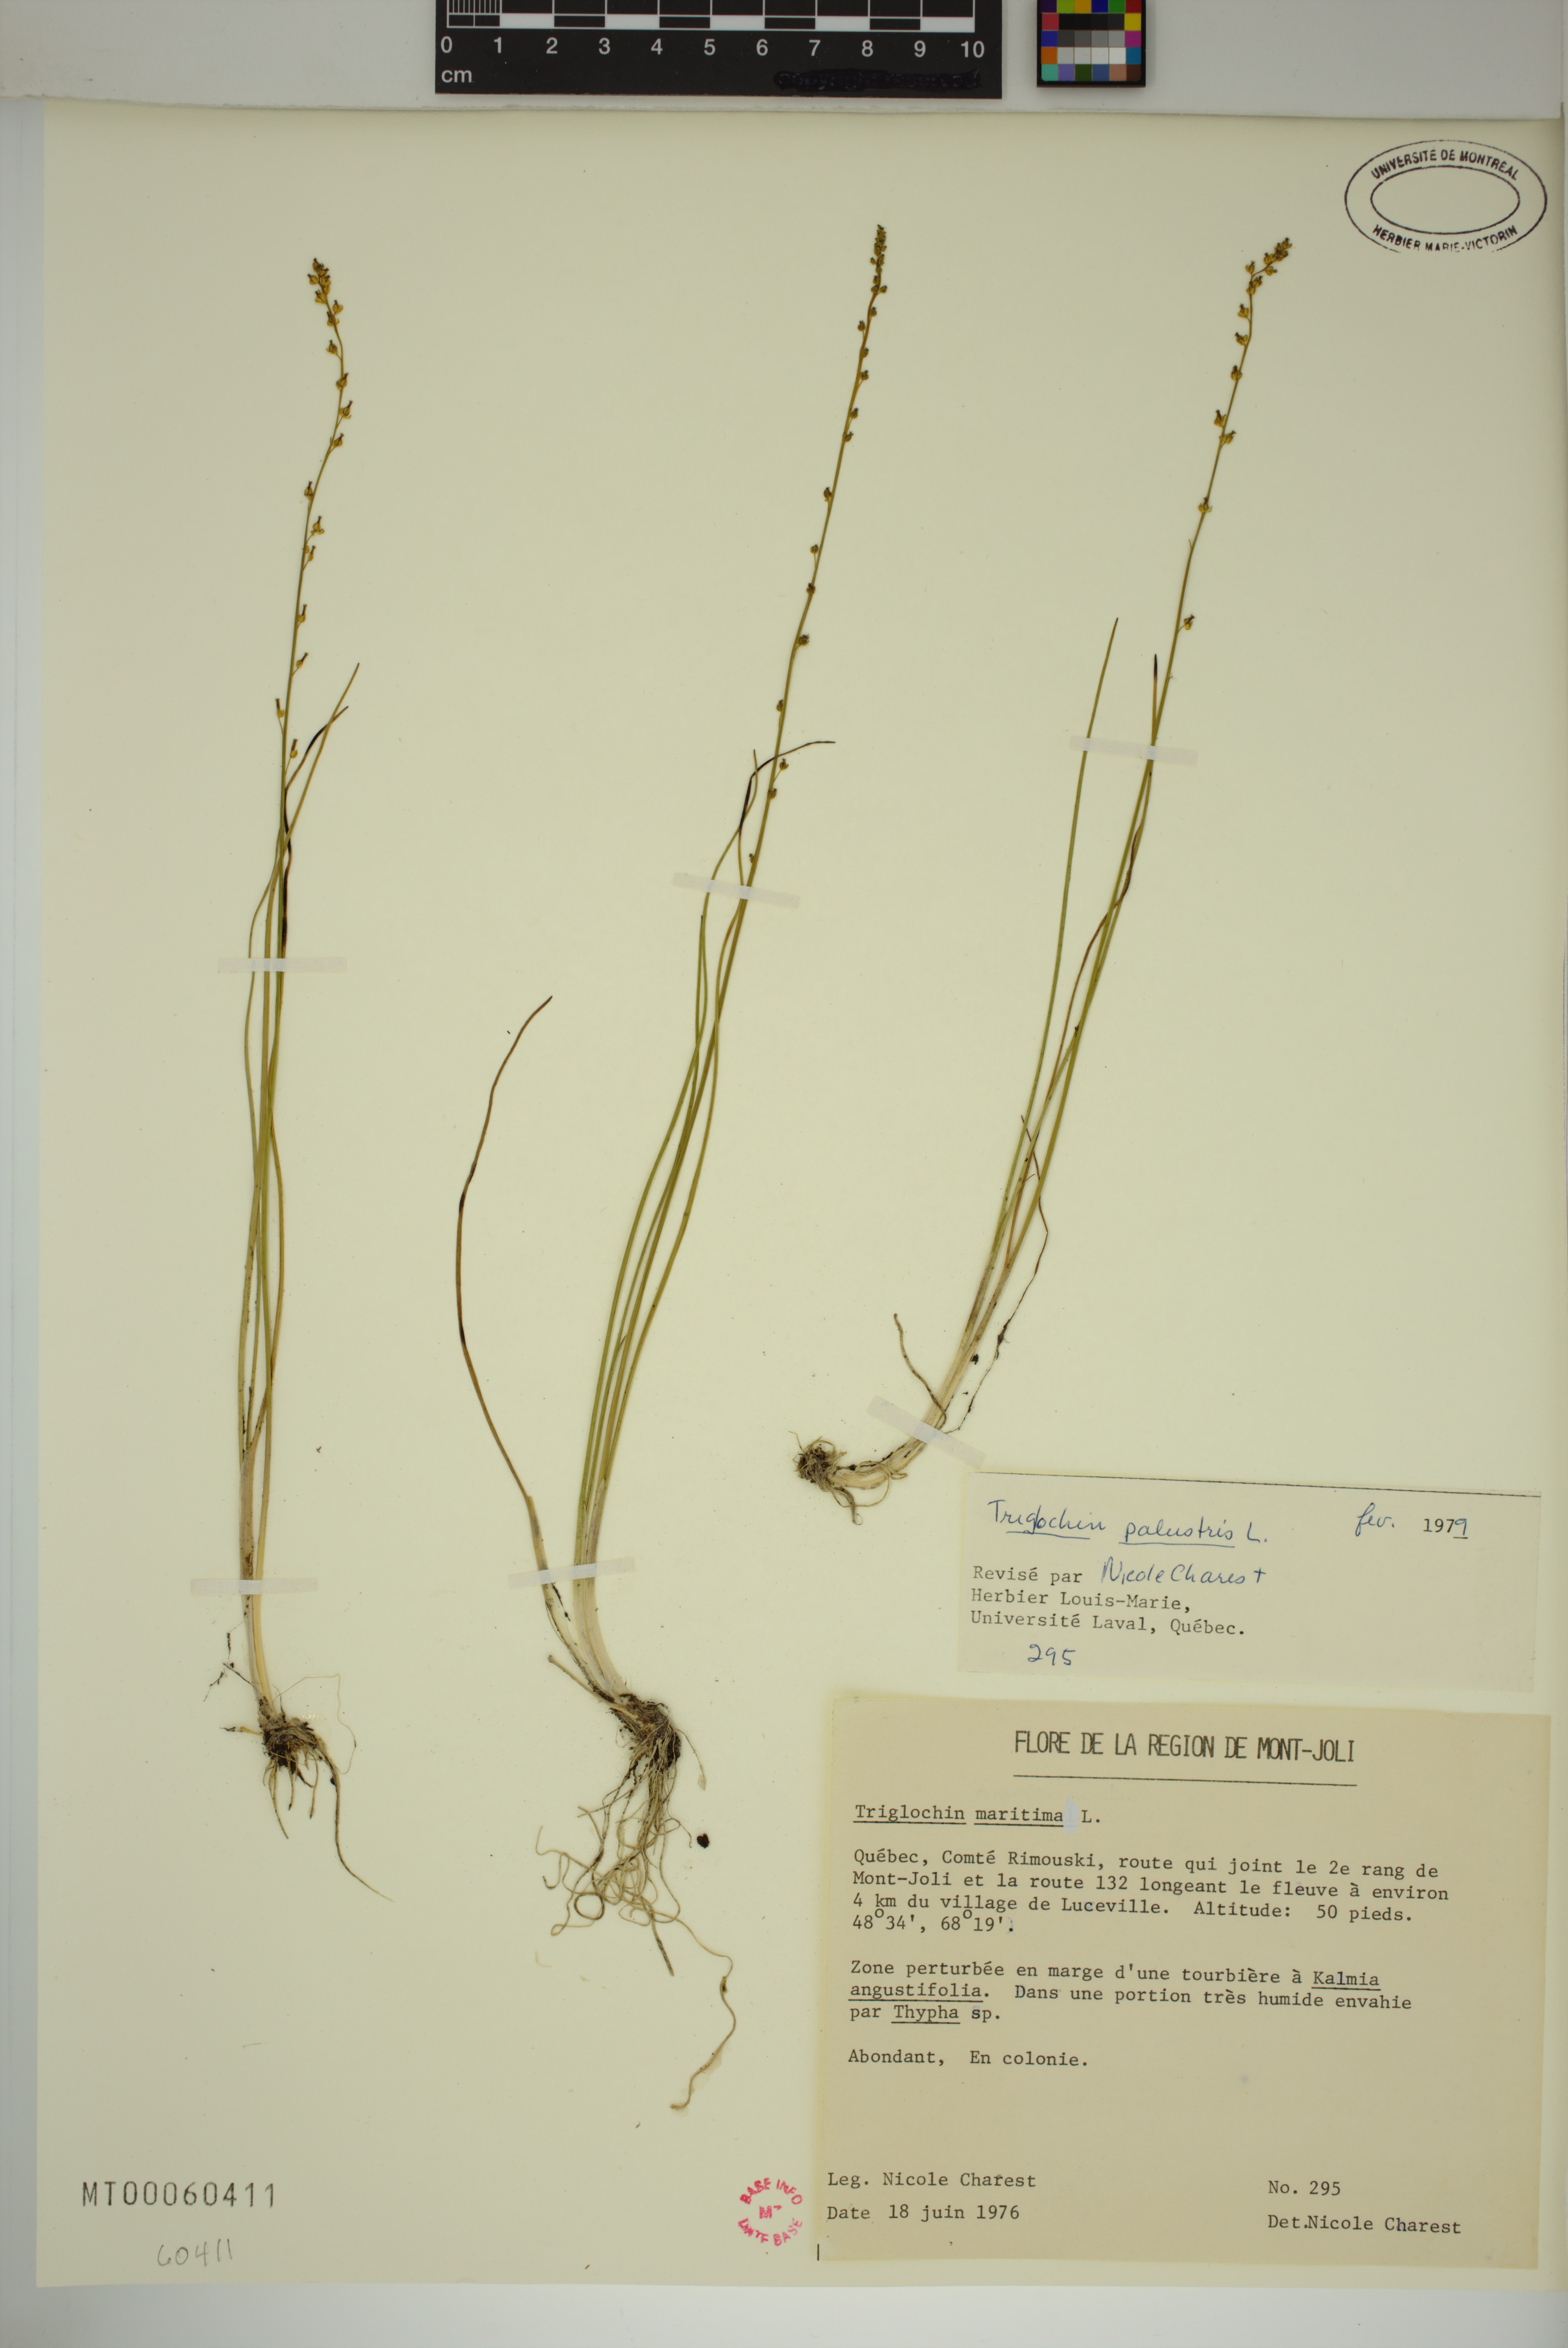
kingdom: Plantae
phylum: Tracheophyta
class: Liliopsida
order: Alismatales
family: Juncaginaceae
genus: Triglochin
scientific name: Triglochin palustris
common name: Marsh arrowgrass
